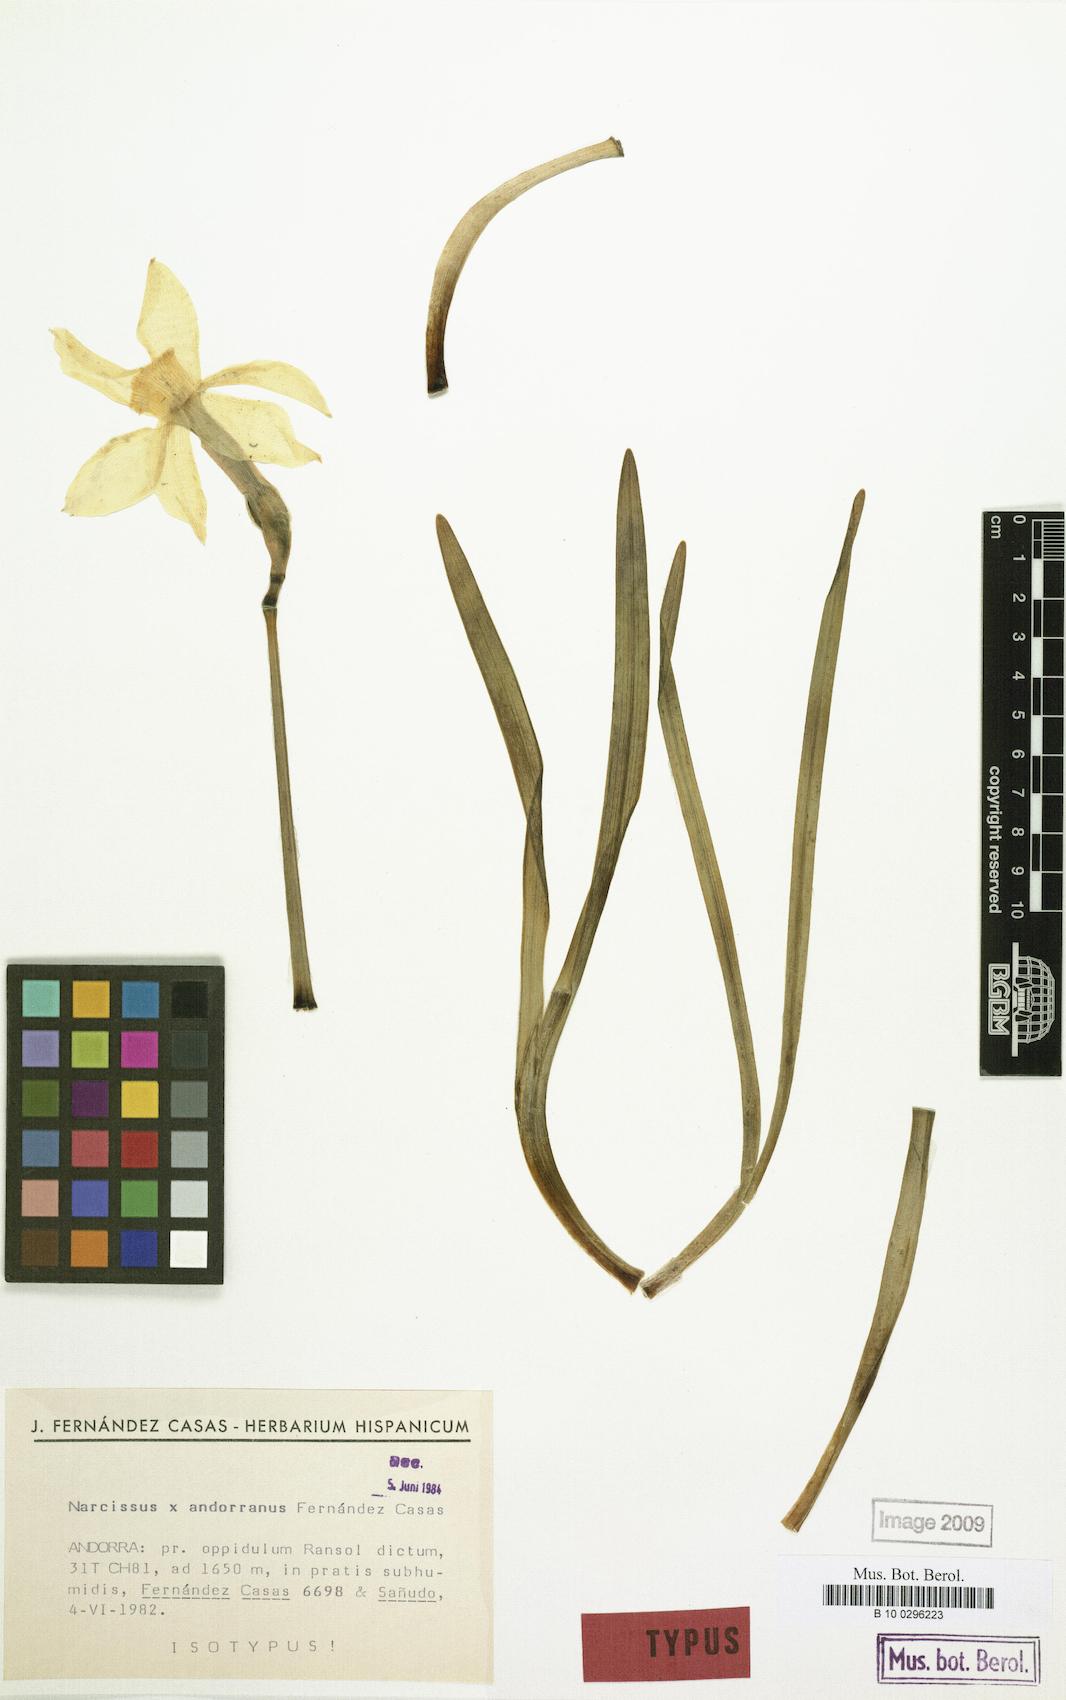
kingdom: Plantae
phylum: Tracheophyta
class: Liliopsida
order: Asparagales
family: Amaryllidaceae
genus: Narcissus
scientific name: Narcissus andorranus
